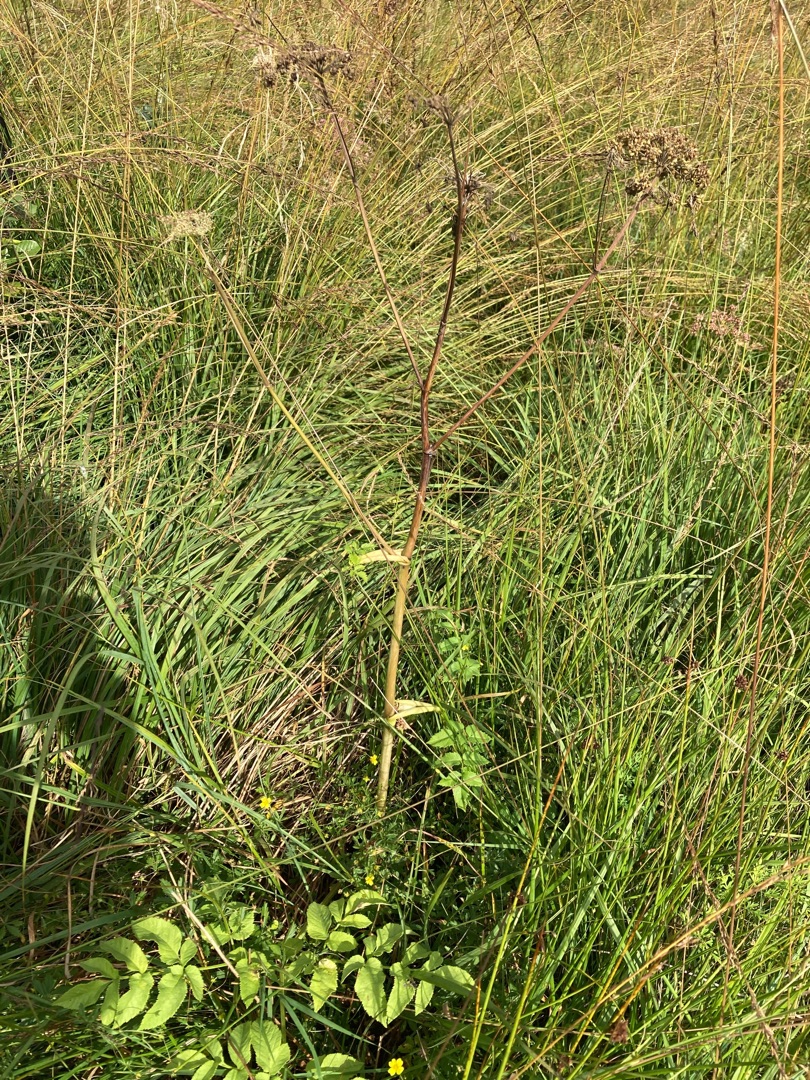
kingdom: Plantae
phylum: Tracheophyta
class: Magnoliopsida
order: Apiales
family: Apiaceae
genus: Angelica
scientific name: Angelica sylvestris
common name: Angelik
